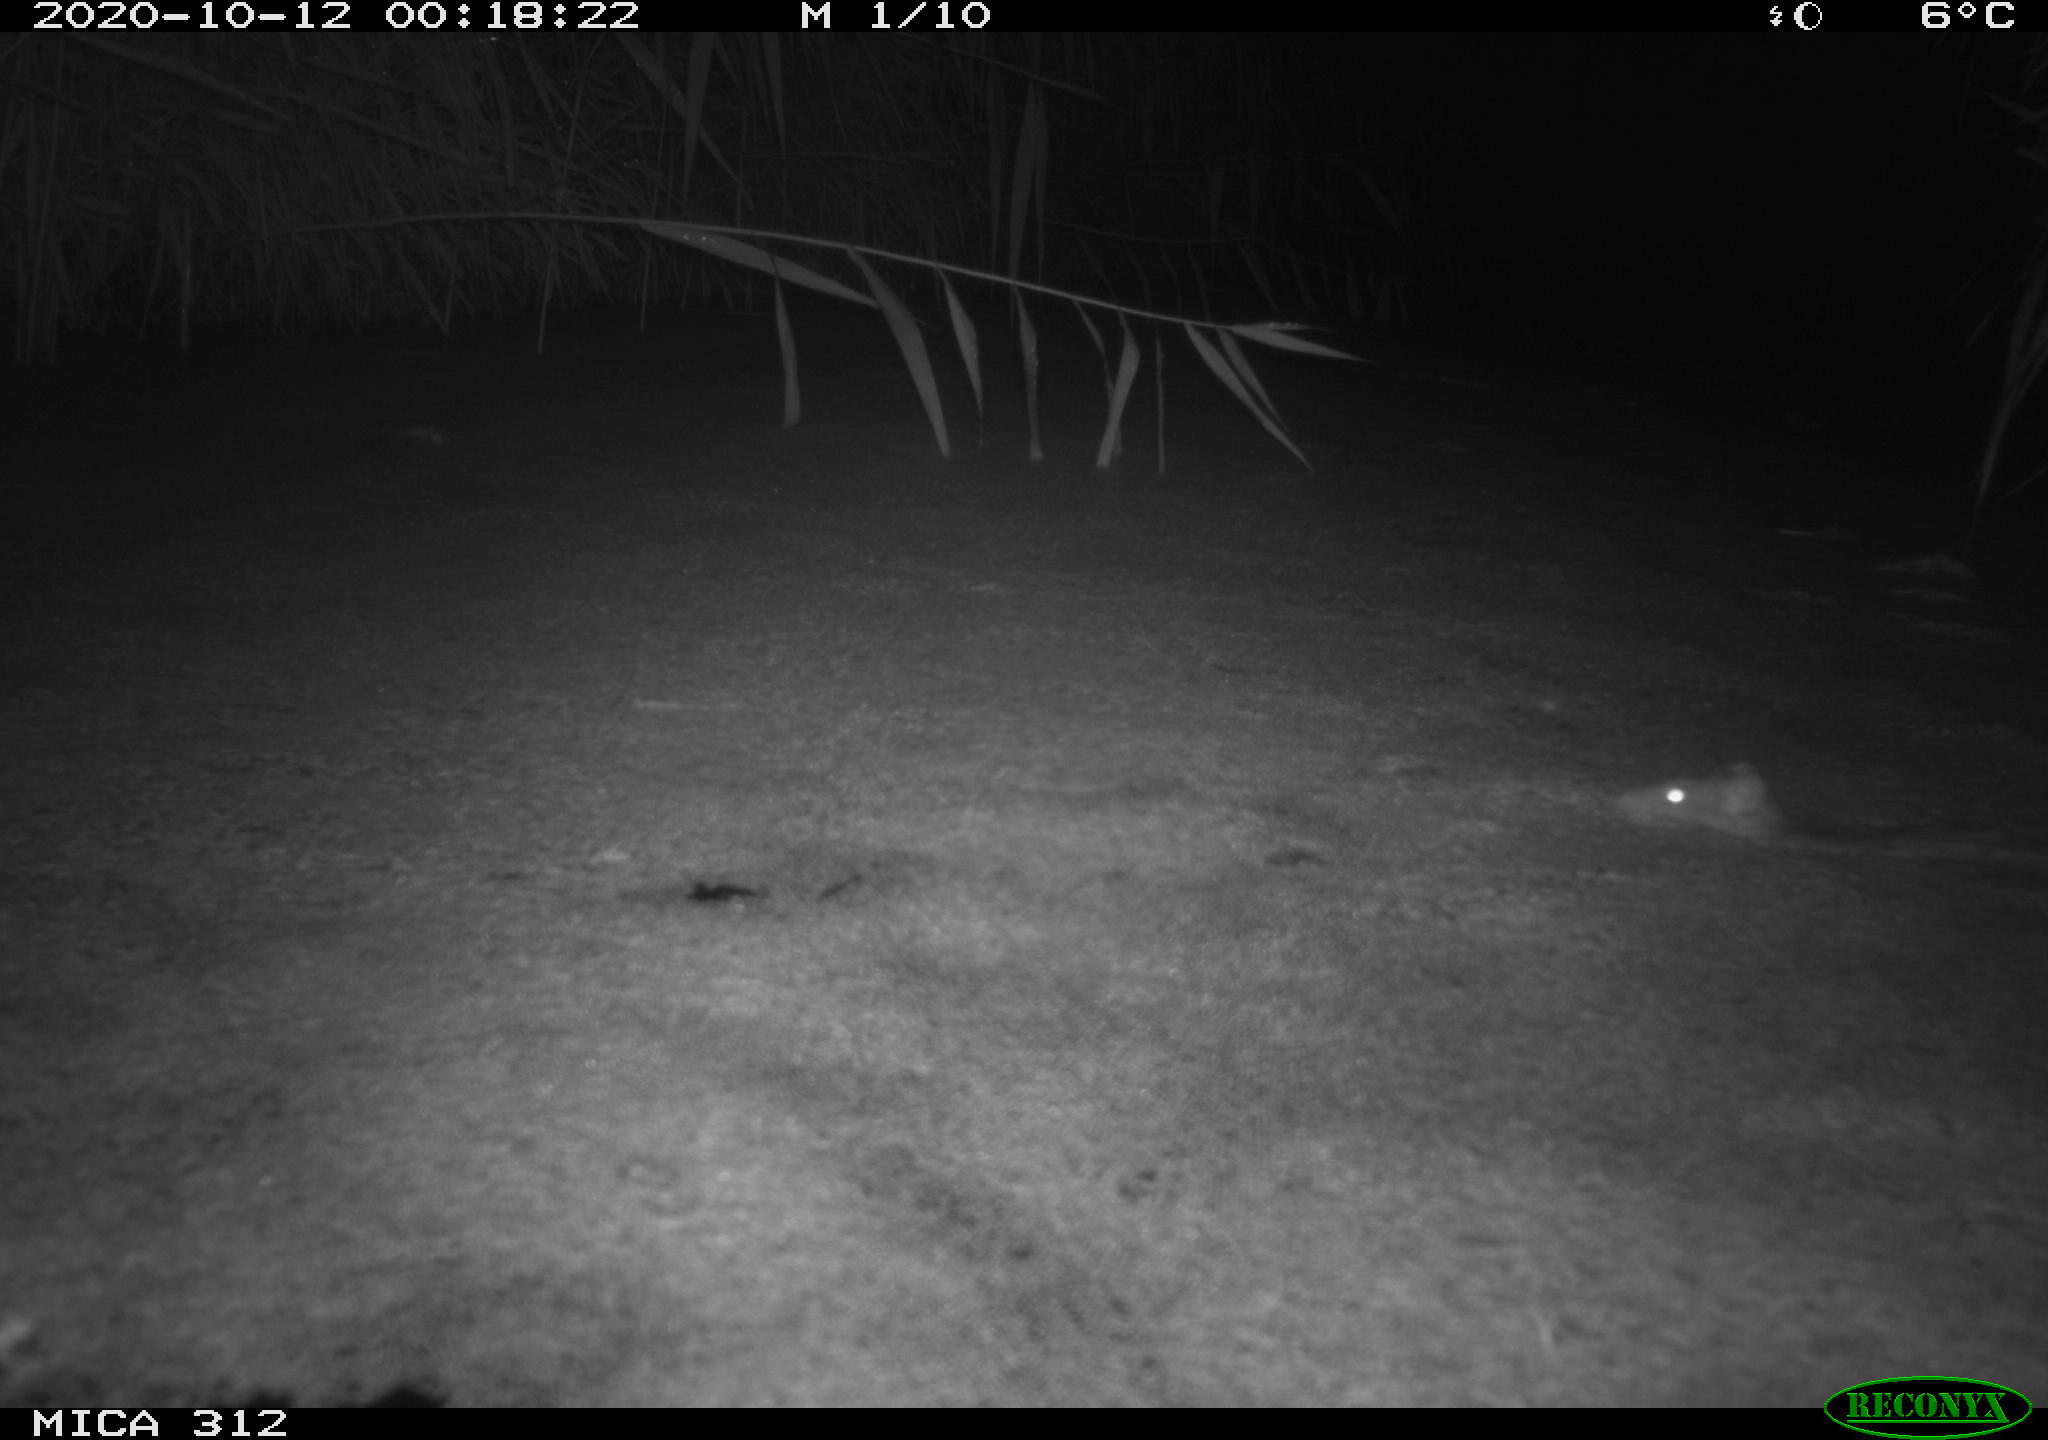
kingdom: Animalia
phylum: Chordata
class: Mammalia
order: Rodentia
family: Muridae
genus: Rattus
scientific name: Rattus norvegicus
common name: Brown rat
